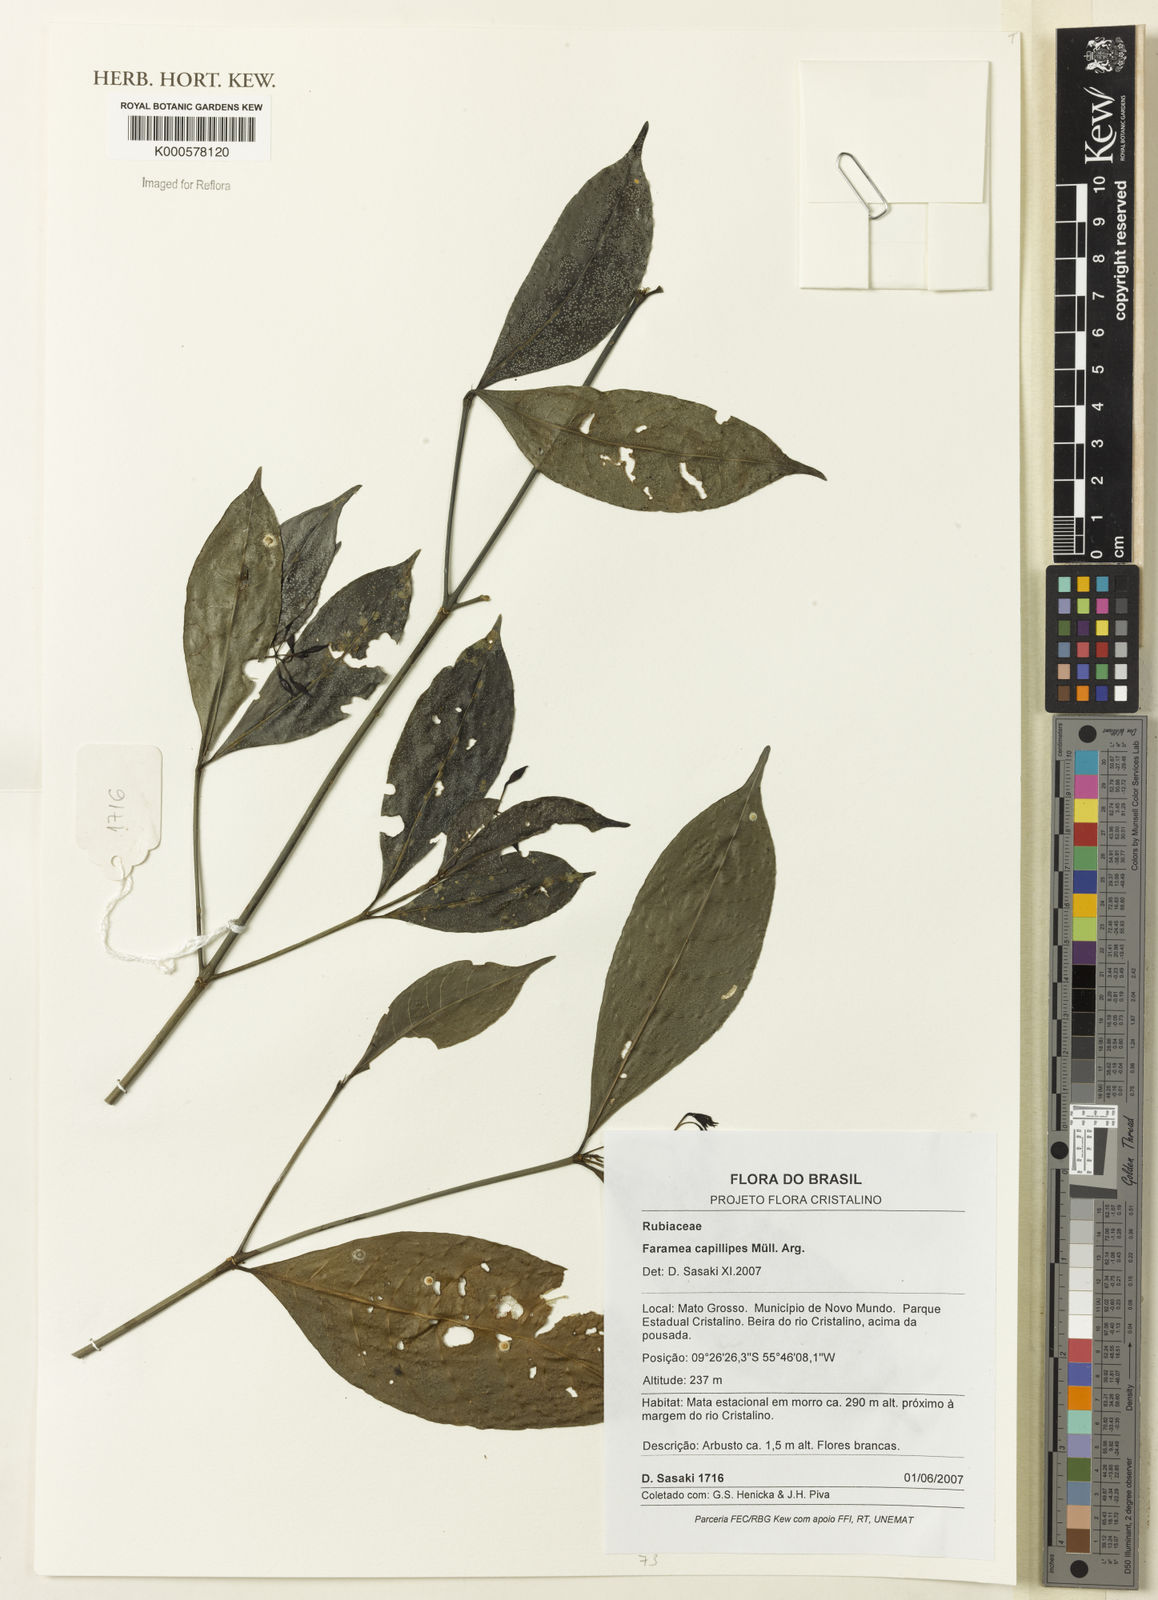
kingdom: Plantae
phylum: Tracheophyta
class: Magnoliopsida
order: Gentianales
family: Rubiaceae
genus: Faramea
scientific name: Faramea
